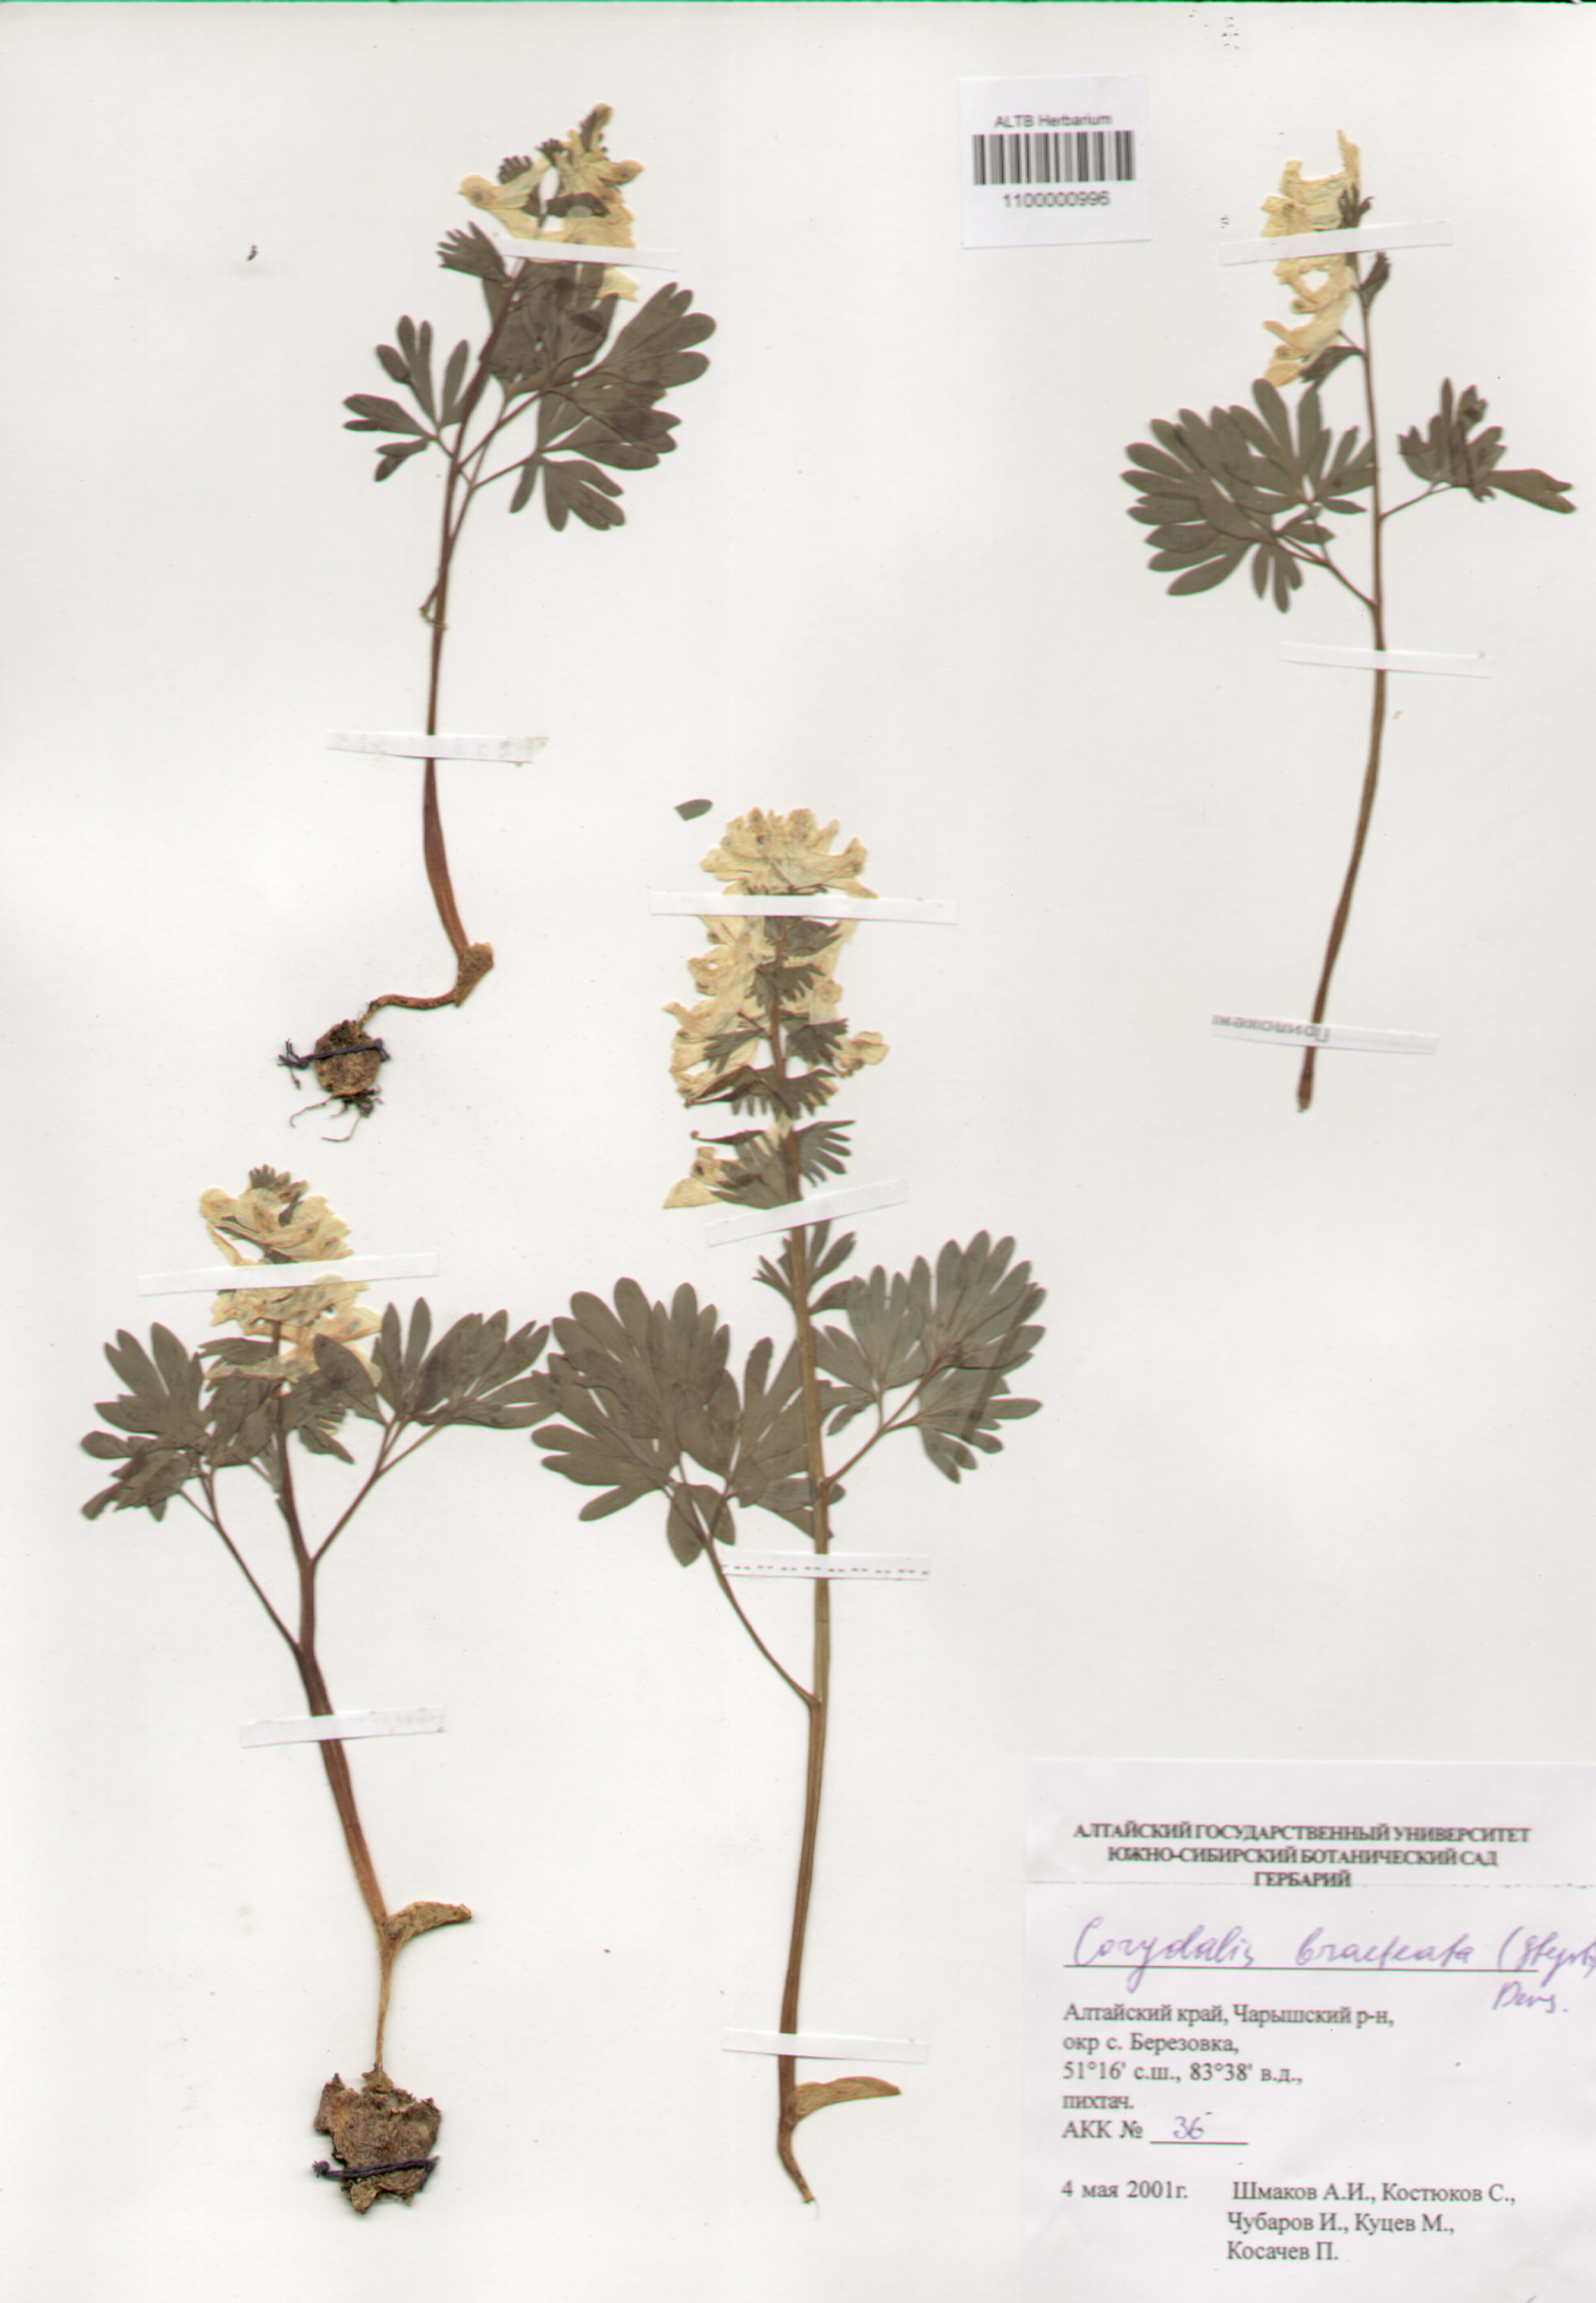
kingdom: Plantae
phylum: Tracheophyta
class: Magnoliopsida
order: Ranunculales
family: Papaveraceae
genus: Corydalis
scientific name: Corydalis bracteata
